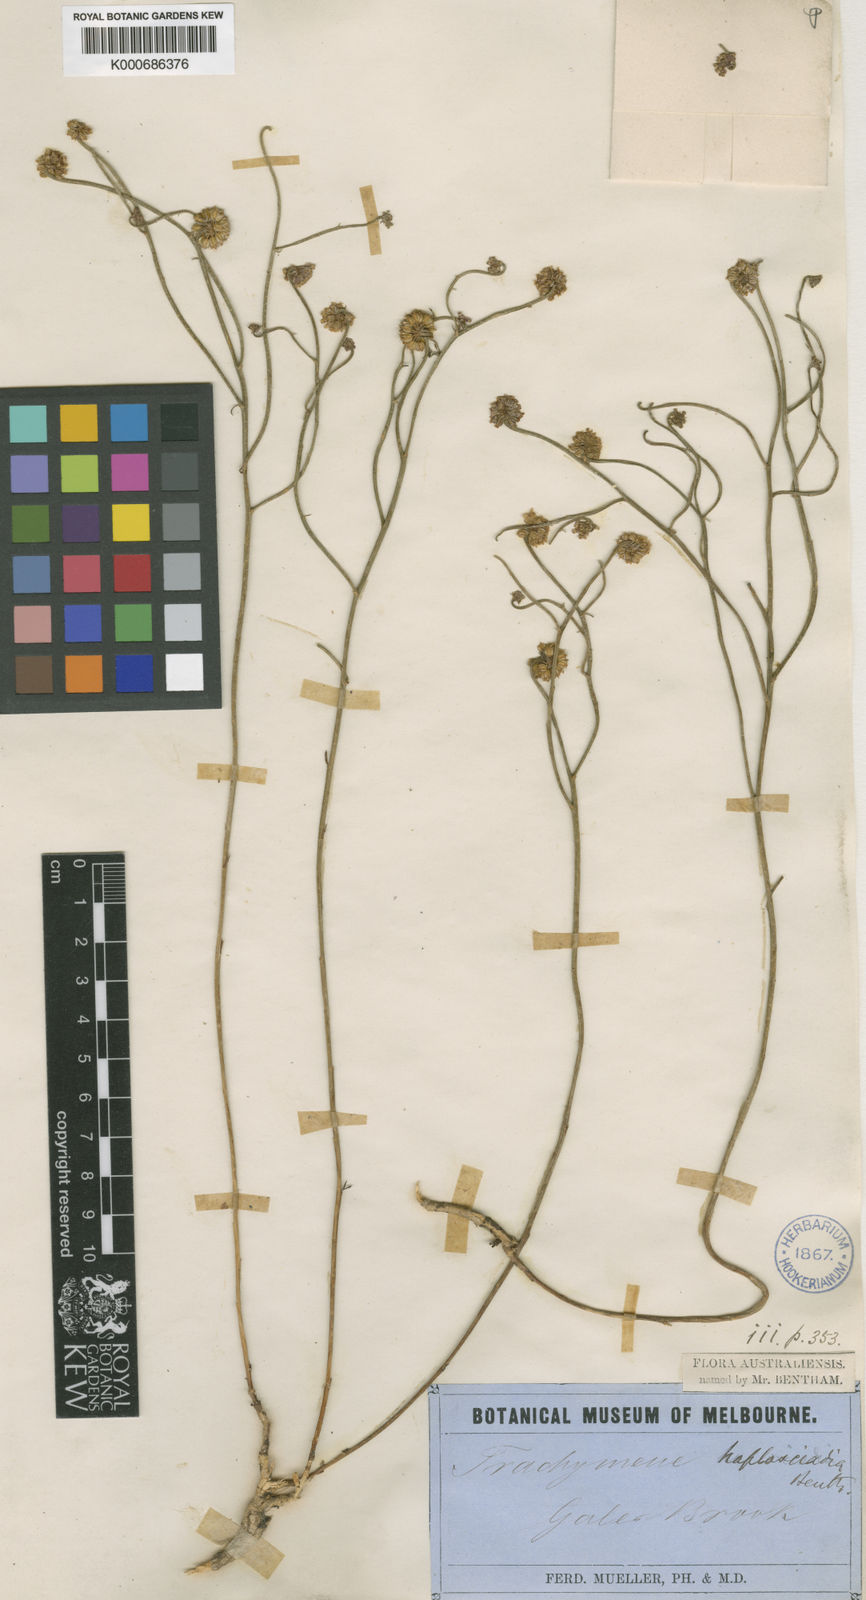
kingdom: Plantae
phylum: Tracheophyta
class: Magnoliopsida
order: Apiales
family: Apiaceae
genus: Platysace
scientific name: Platysace haplosciadia
